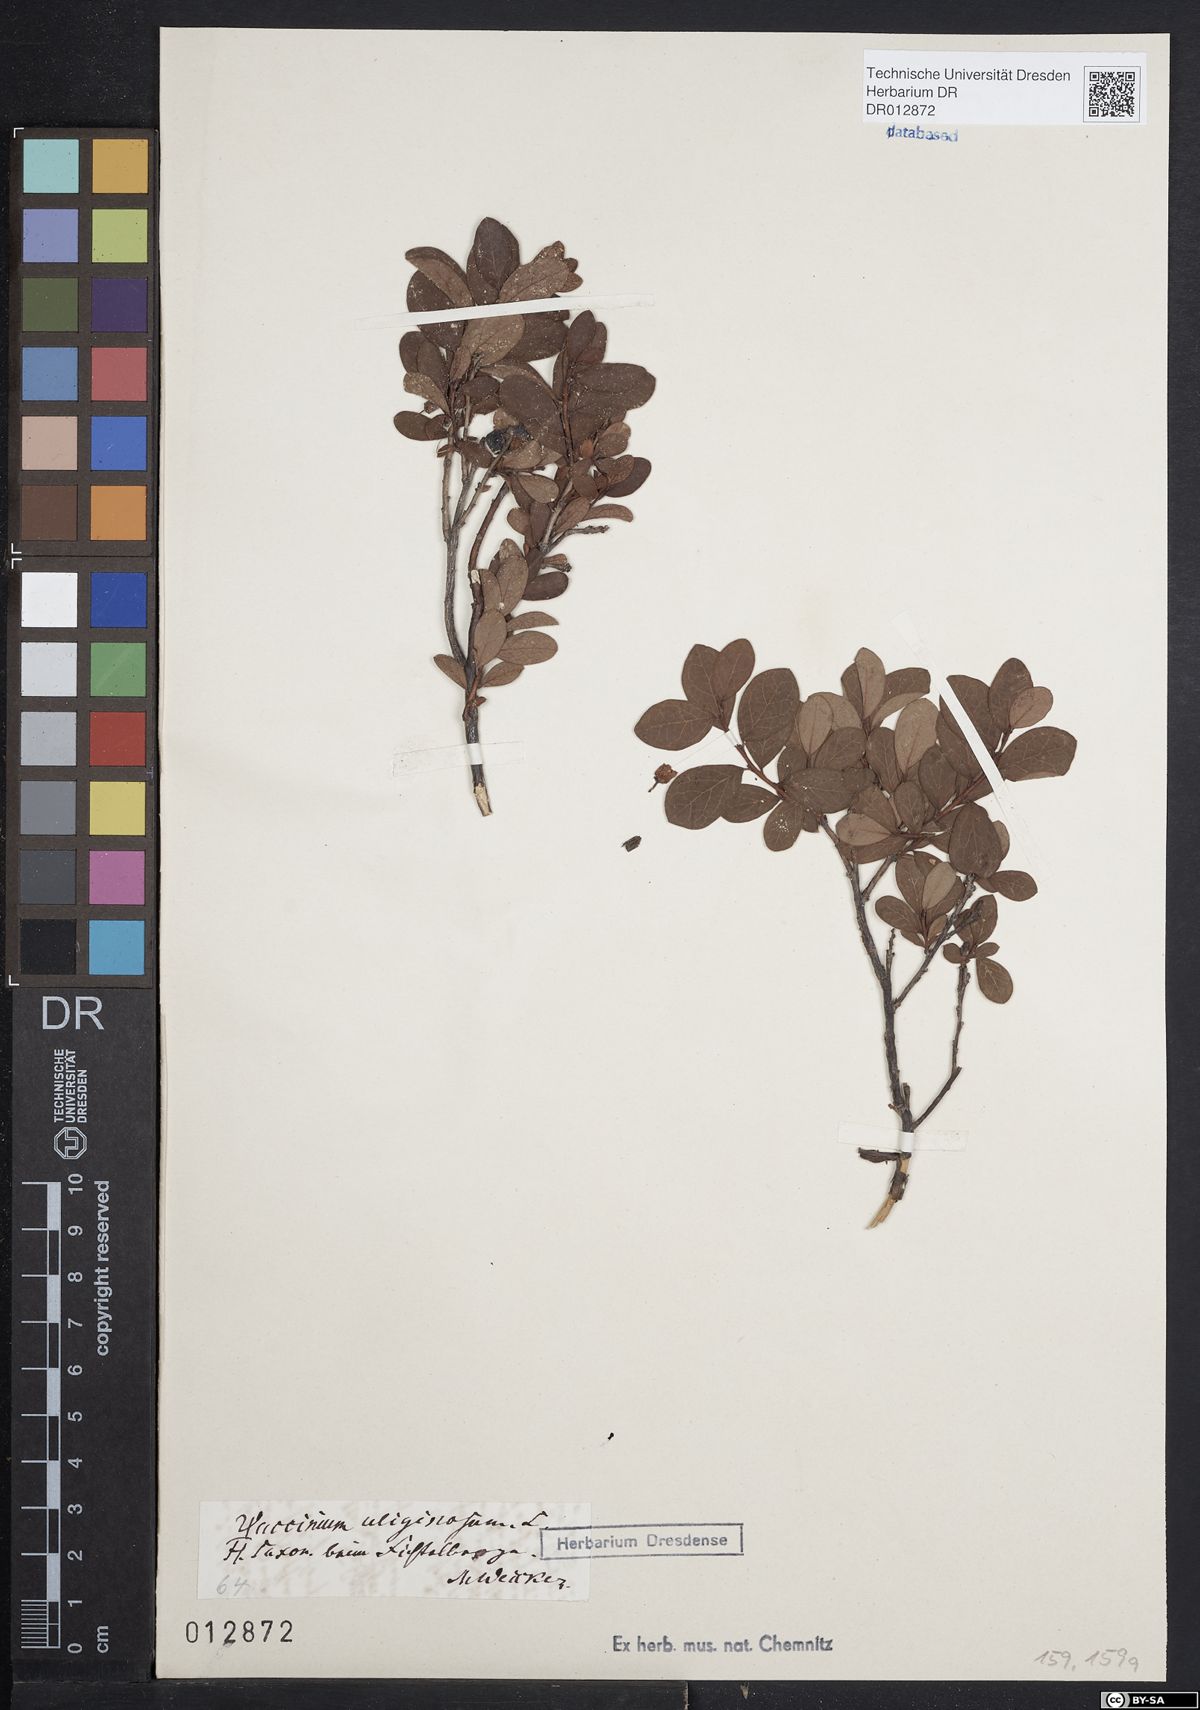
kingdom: Plantae
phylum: Tracheophyta
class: Magnoliopsida
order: Ericales
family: Ericaceae
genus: Vaccinium
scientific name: Vaccinium uliginosum
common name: Bog bilberry
